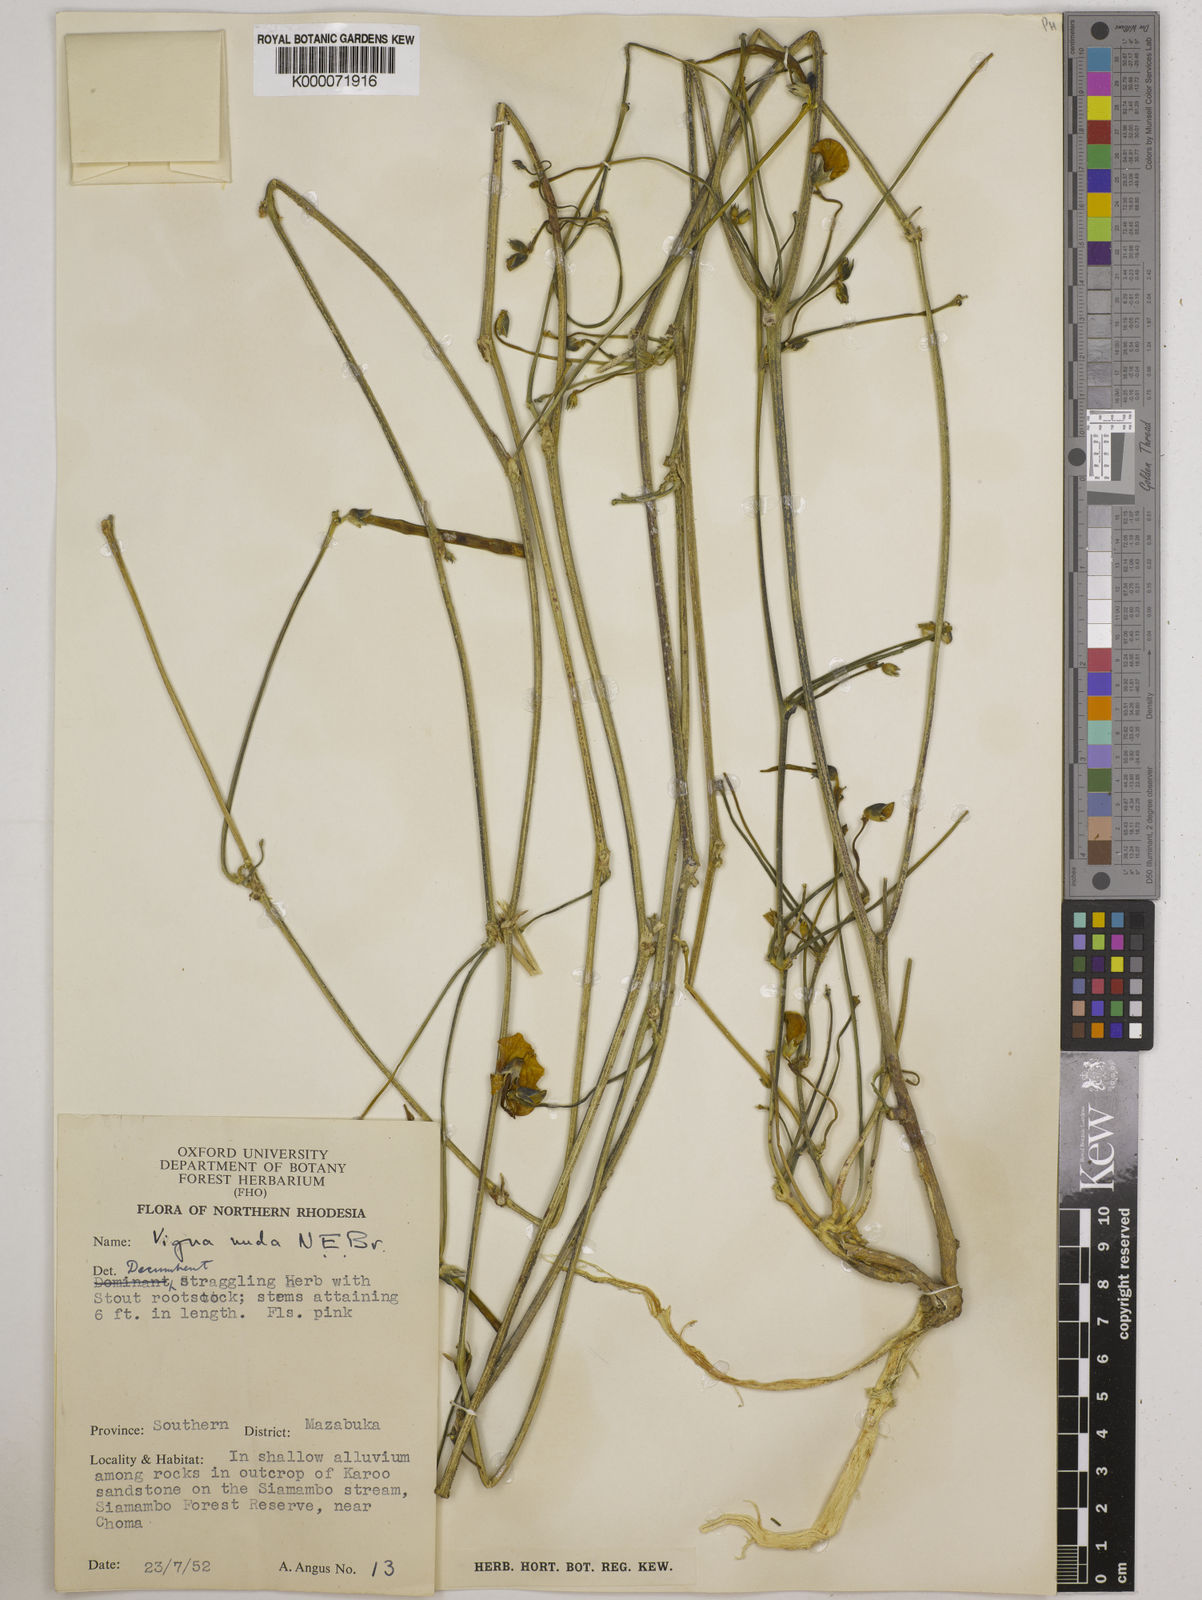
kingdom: Plantae
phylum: Tracheophyta
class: Magnoliopsida
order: Fabales
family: Fabaceae
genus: Vigna
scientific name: Vigna antunesii
